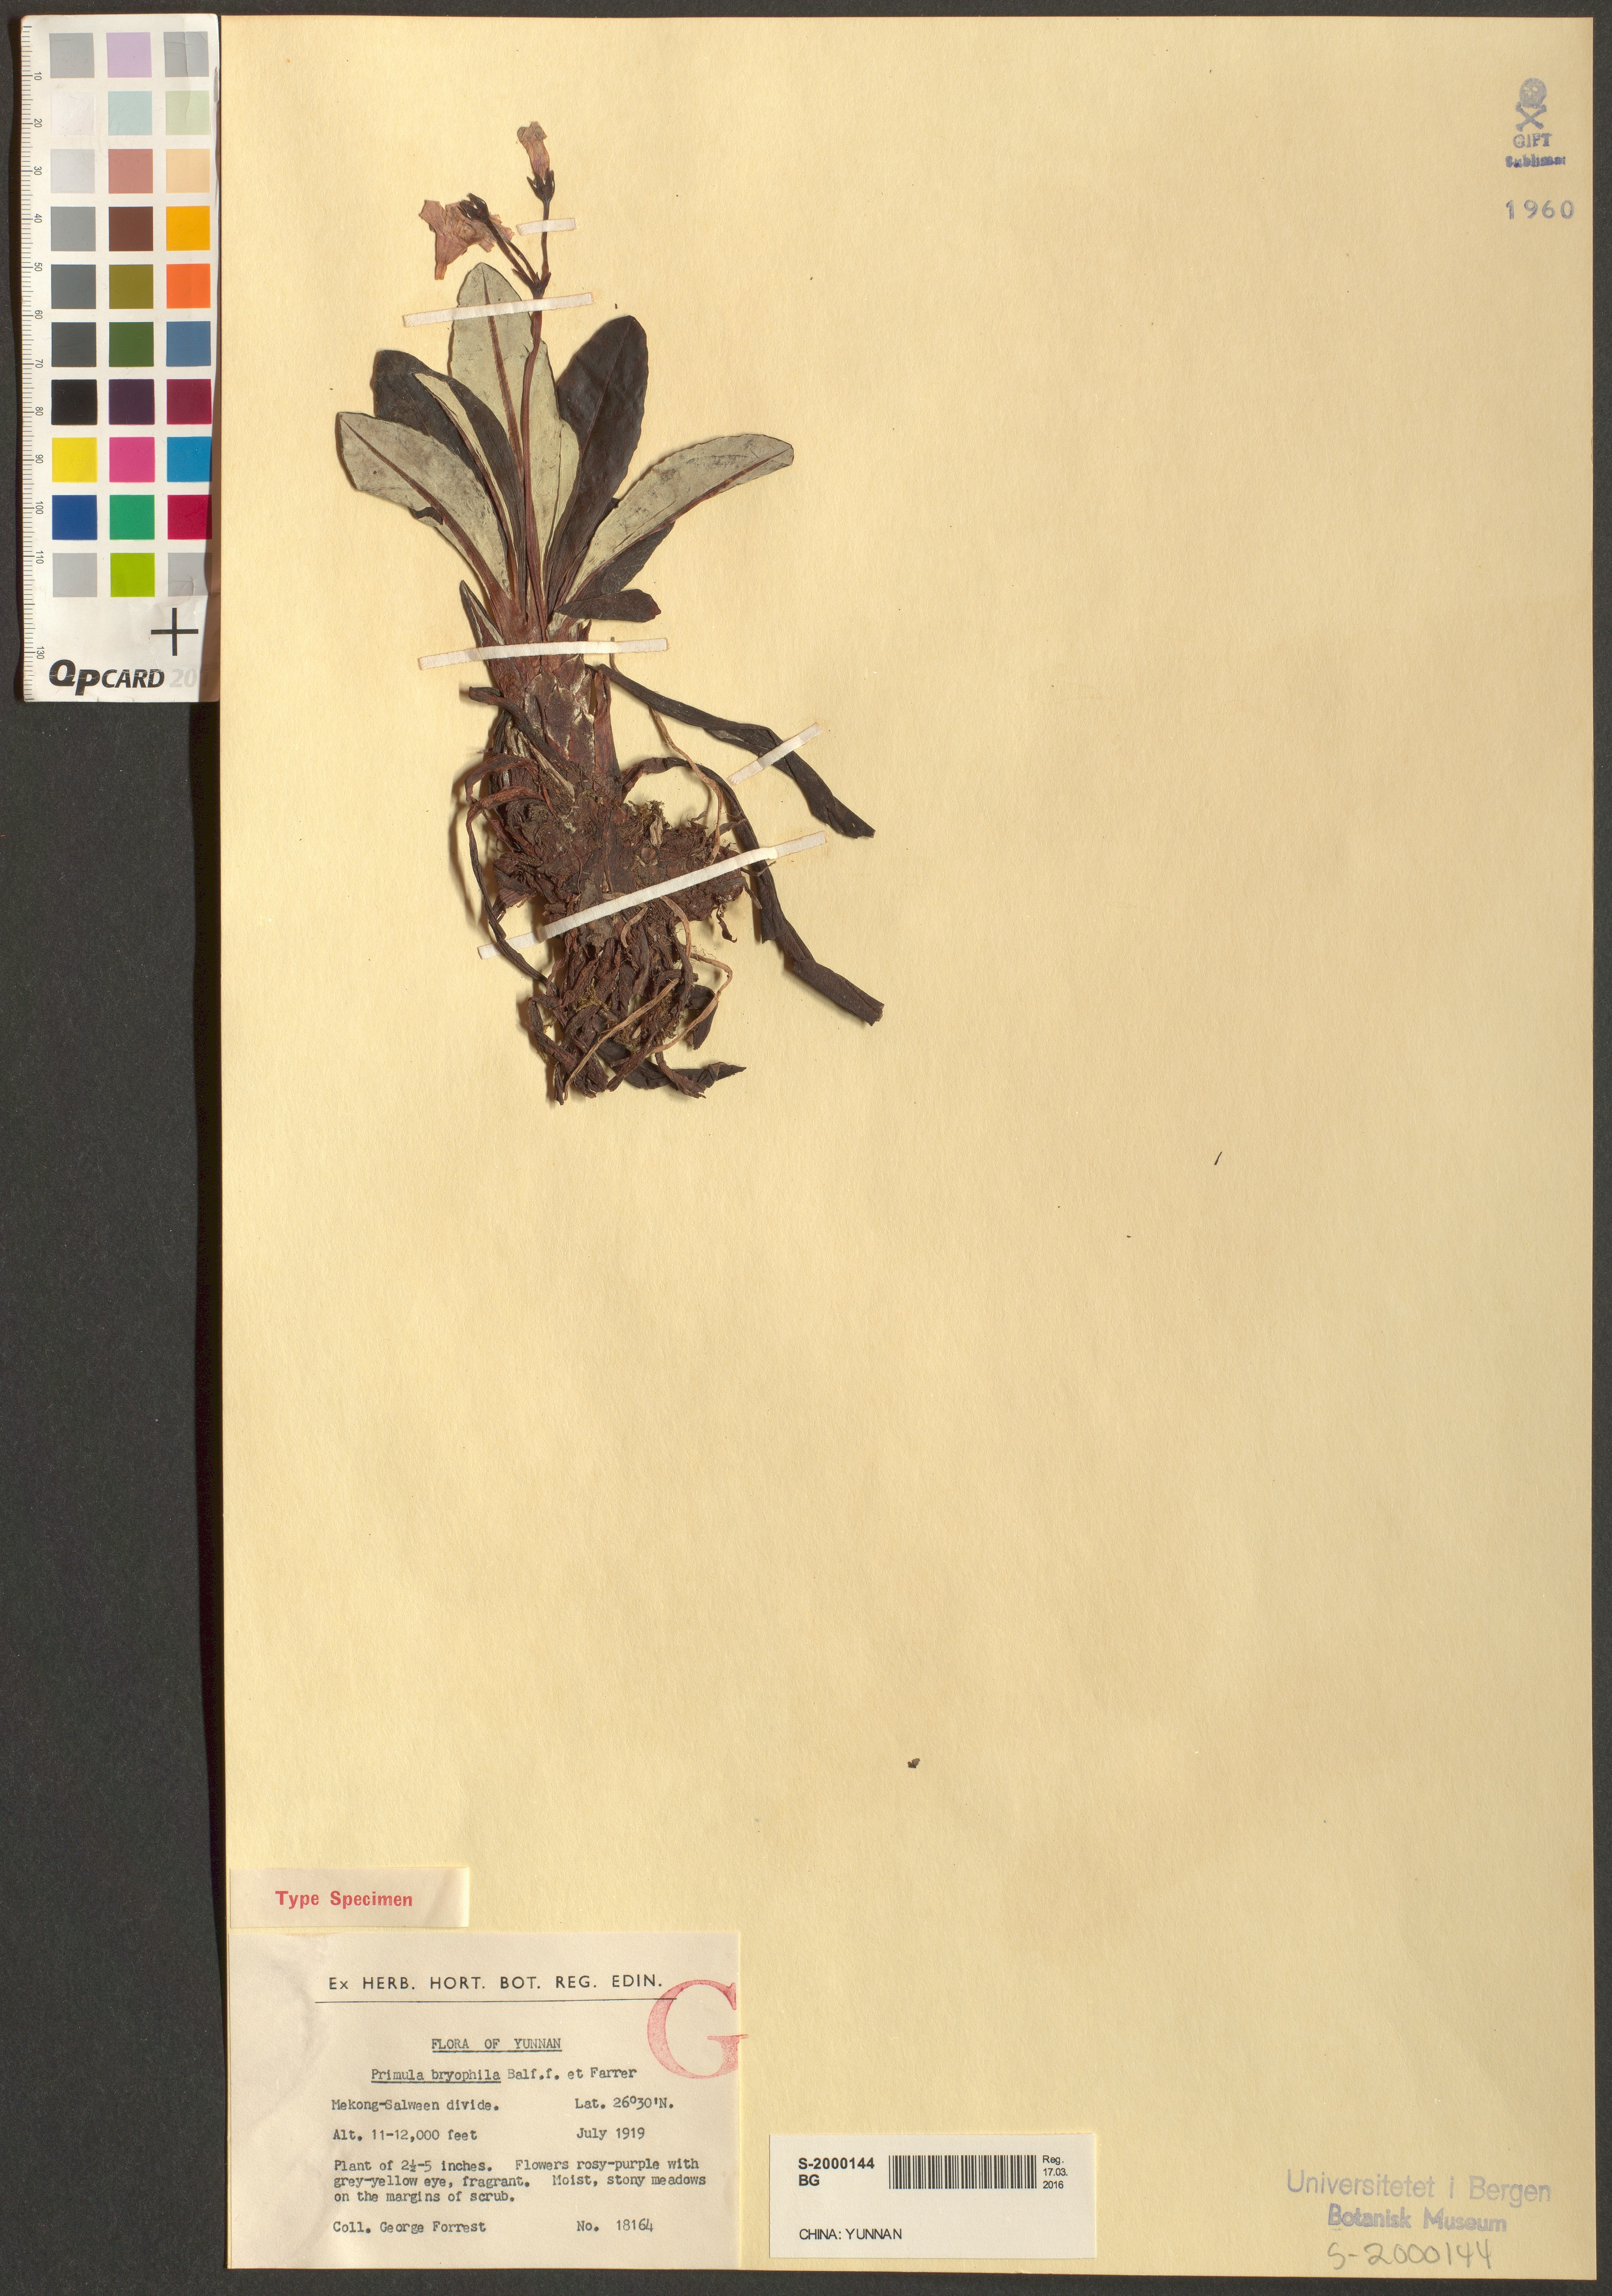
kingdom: Plantae
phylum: Tracheophyta
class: Magnoliopsida
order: Ericales
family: Primulaceae
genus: Primula
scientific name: Primula calliantha
